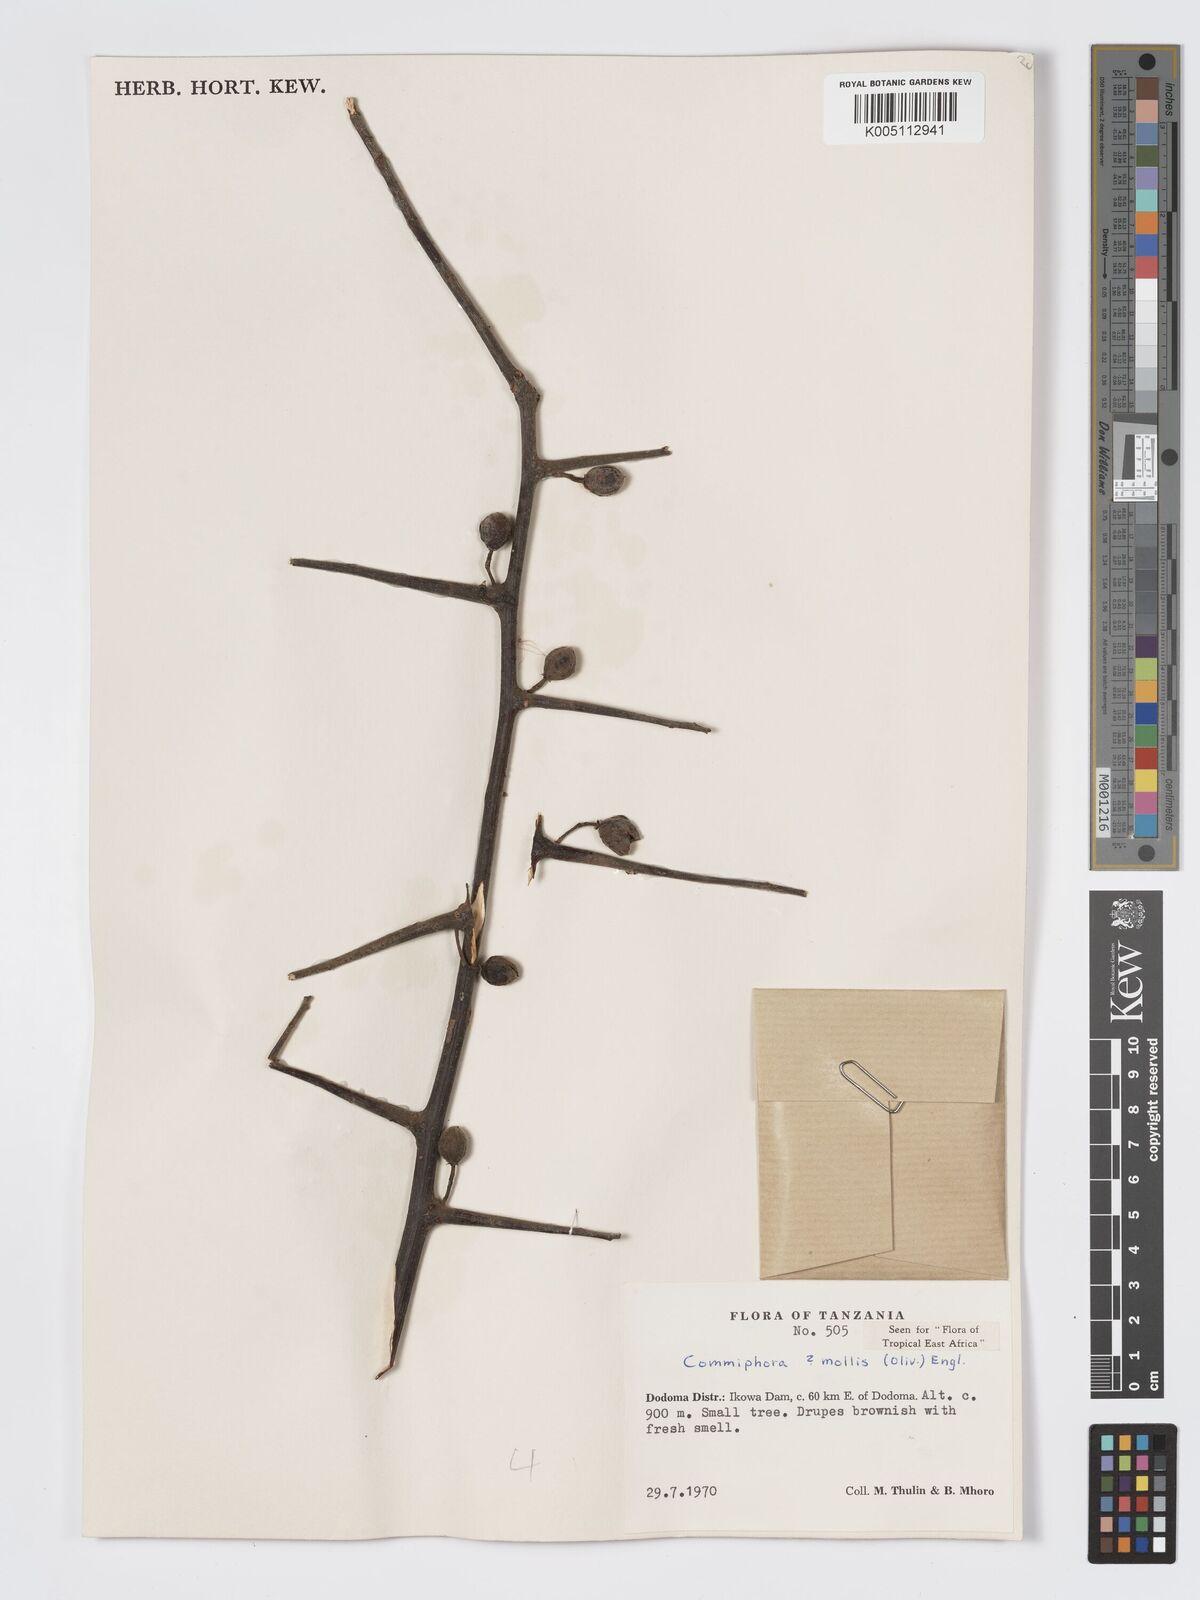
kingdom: Plantae
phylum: Tracheophyta
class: Magnoliopsida
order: Sapindales
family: Burseraceae
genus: Commiphora
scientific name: Commiphora
